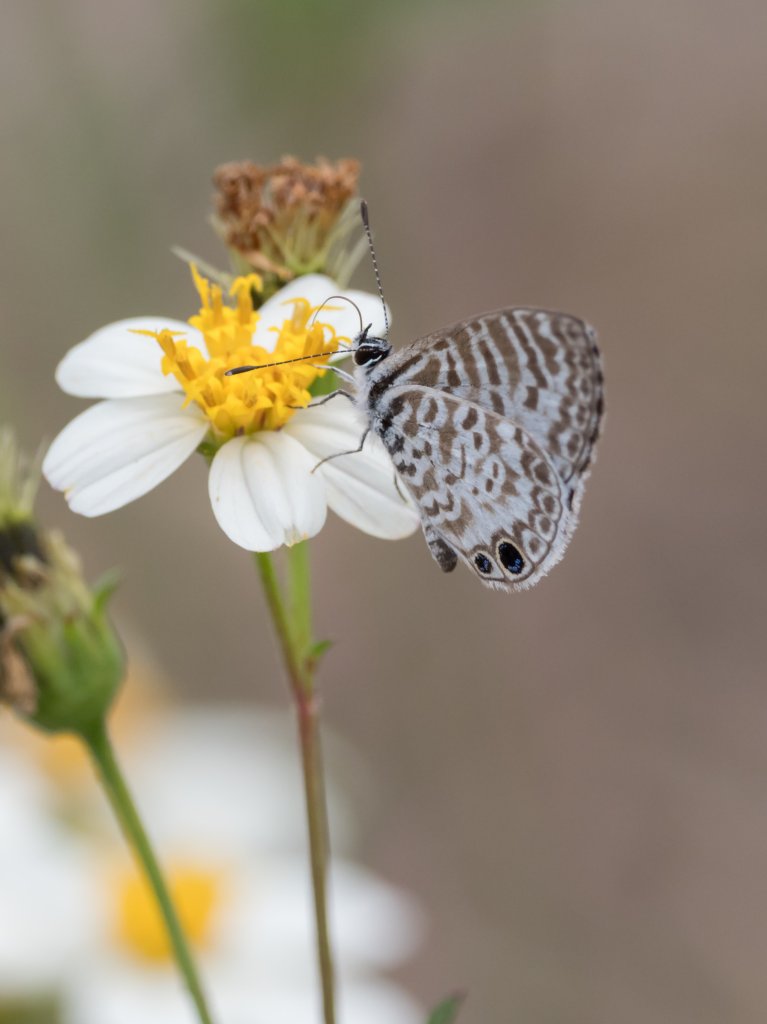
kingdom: Animalia
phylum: Arthropoda
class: Insecta
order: Lepidoptera
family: Lycaenidae
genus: Leptotes
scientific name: Leptotes cassius
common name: Cassius Blue
